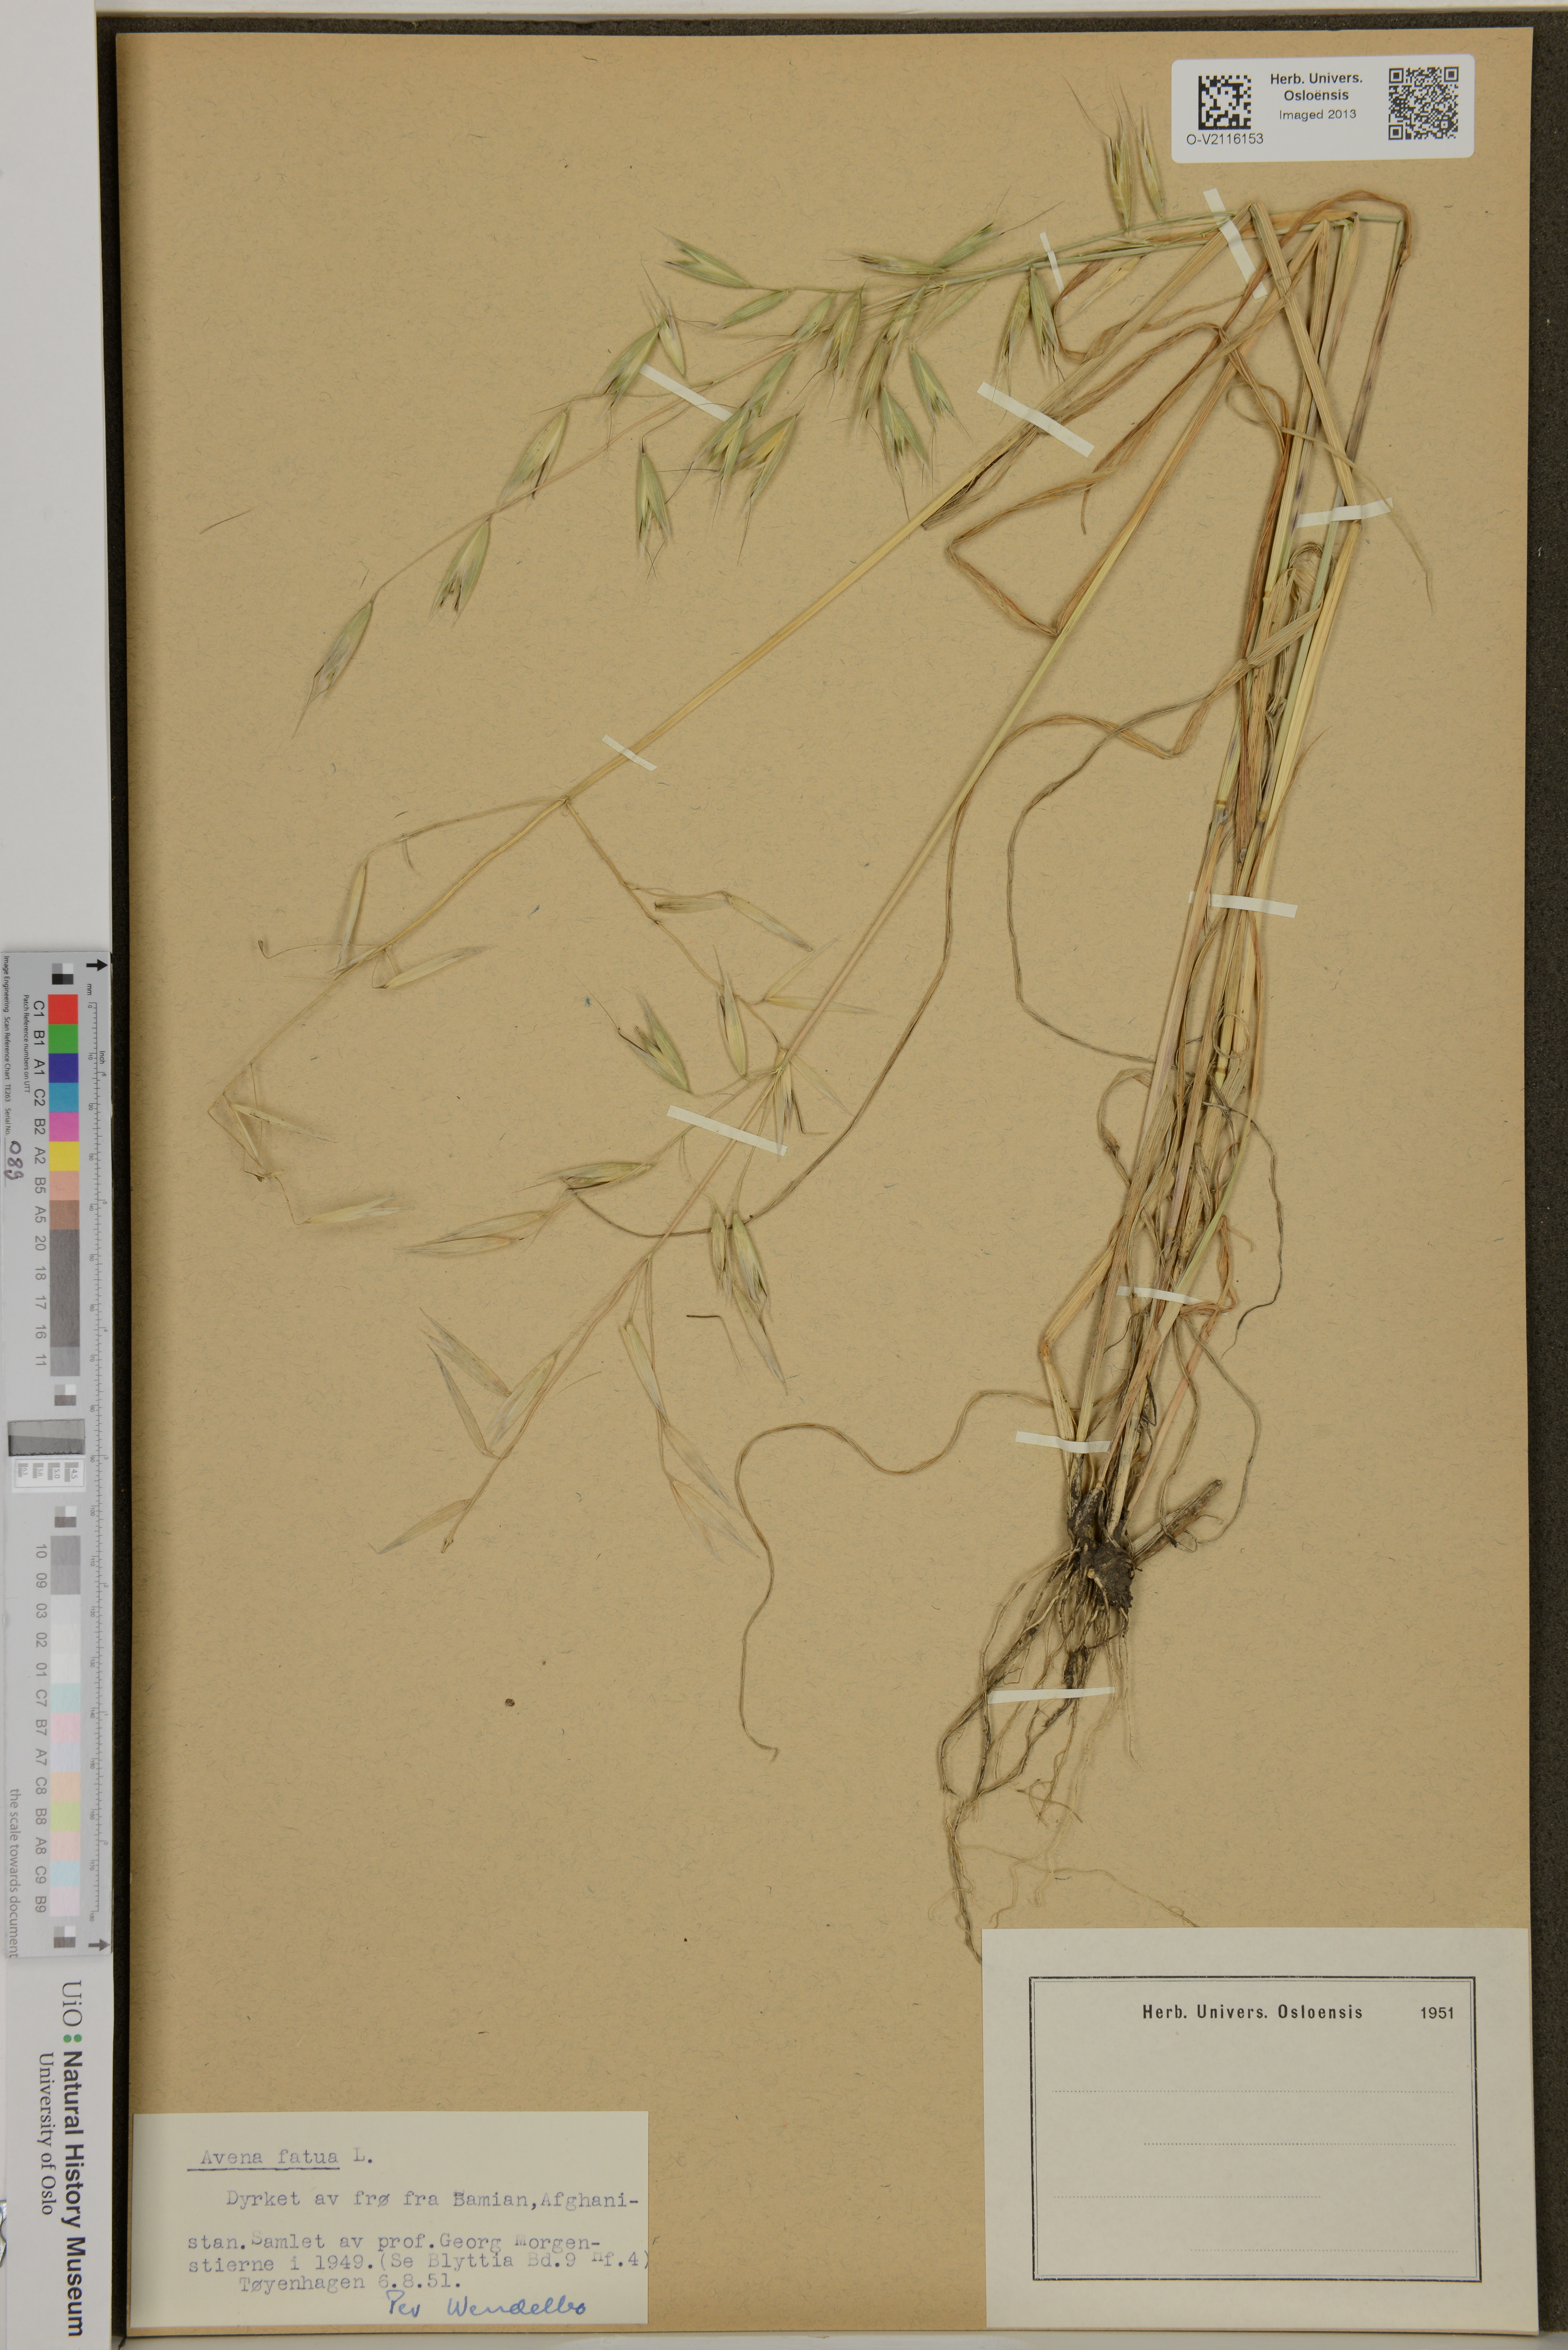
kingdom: Plantae
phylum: Tracheophyta
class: Liliopsida
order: Poales
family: Poaceae
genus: Avena
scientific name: Avena fatua
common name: Wild oat
